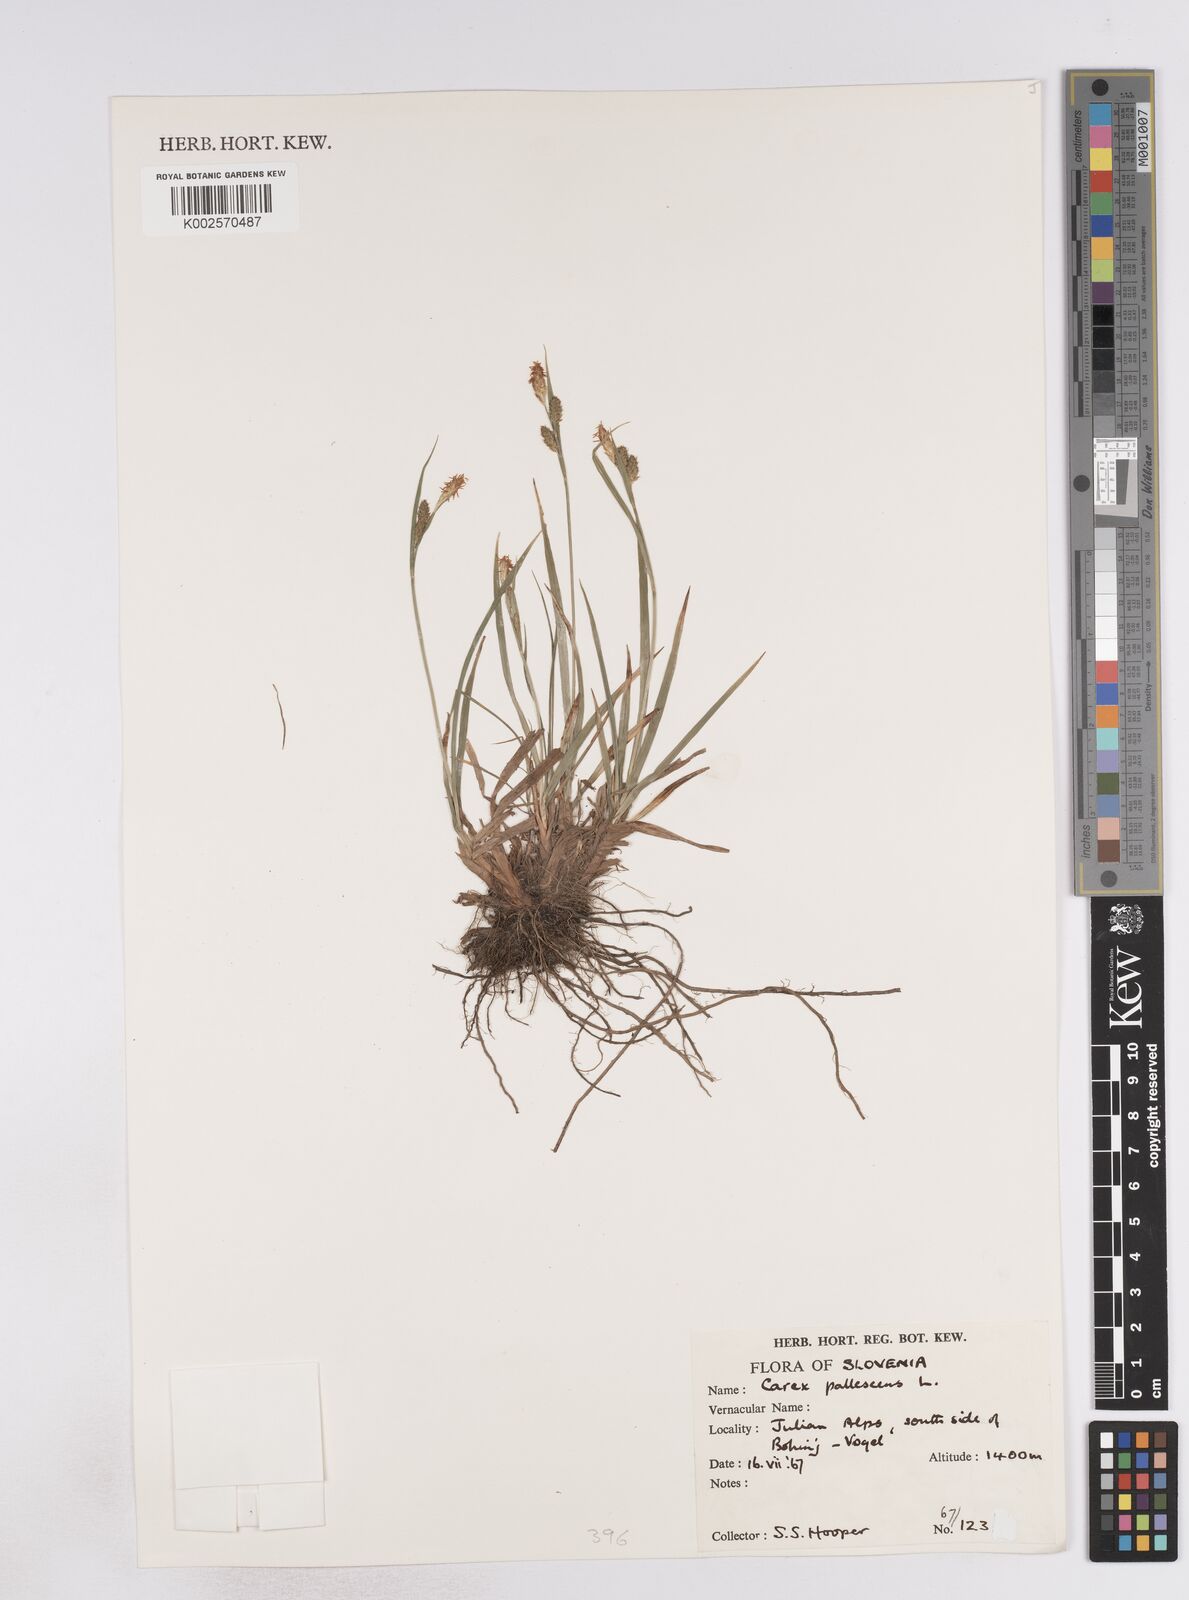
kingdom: Plantae
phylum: Tracheophyta
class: Liliopsida
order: Poales
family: Cyperaceae
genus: Carex
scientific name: Carex pallescens
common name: Pale sedge
